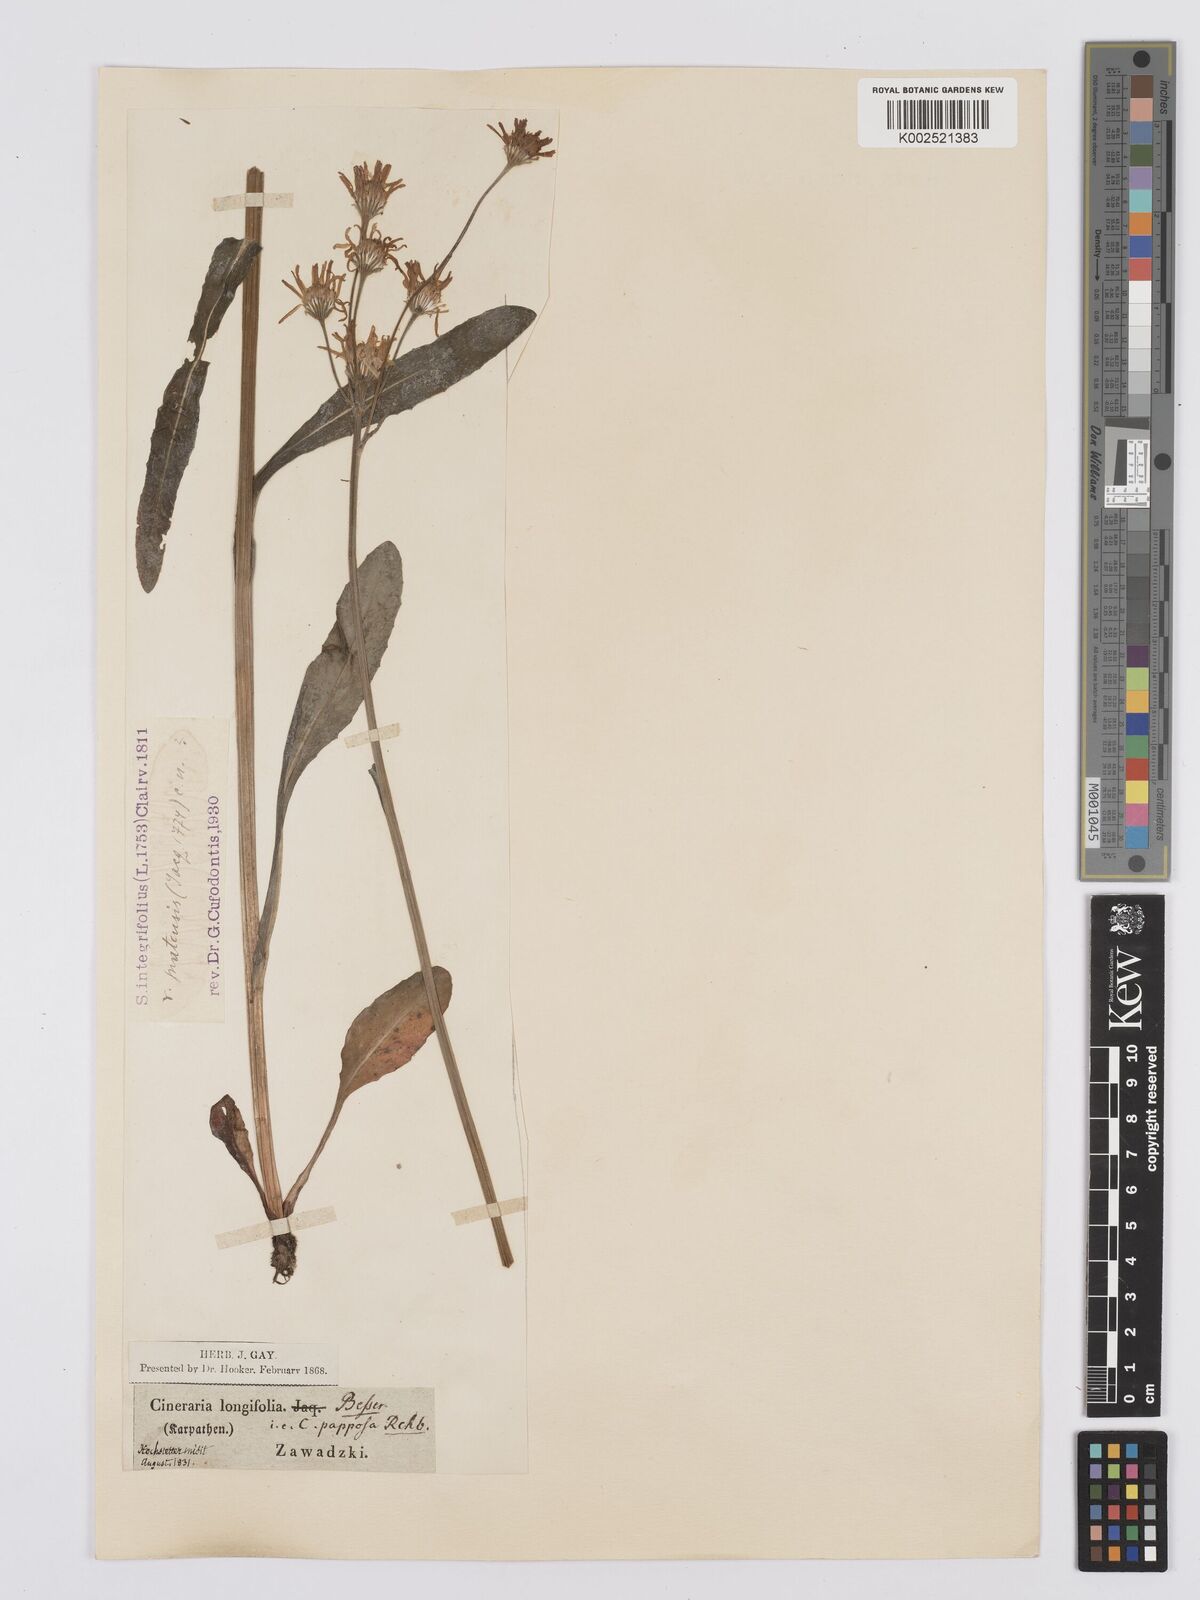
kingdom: Plantae
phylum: Tracheophyta
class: Magnoliopsida
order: Asterales
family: Asteraceae
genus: Tephroseris
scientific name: Tephroseris integrifolia
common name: Field fleawort
